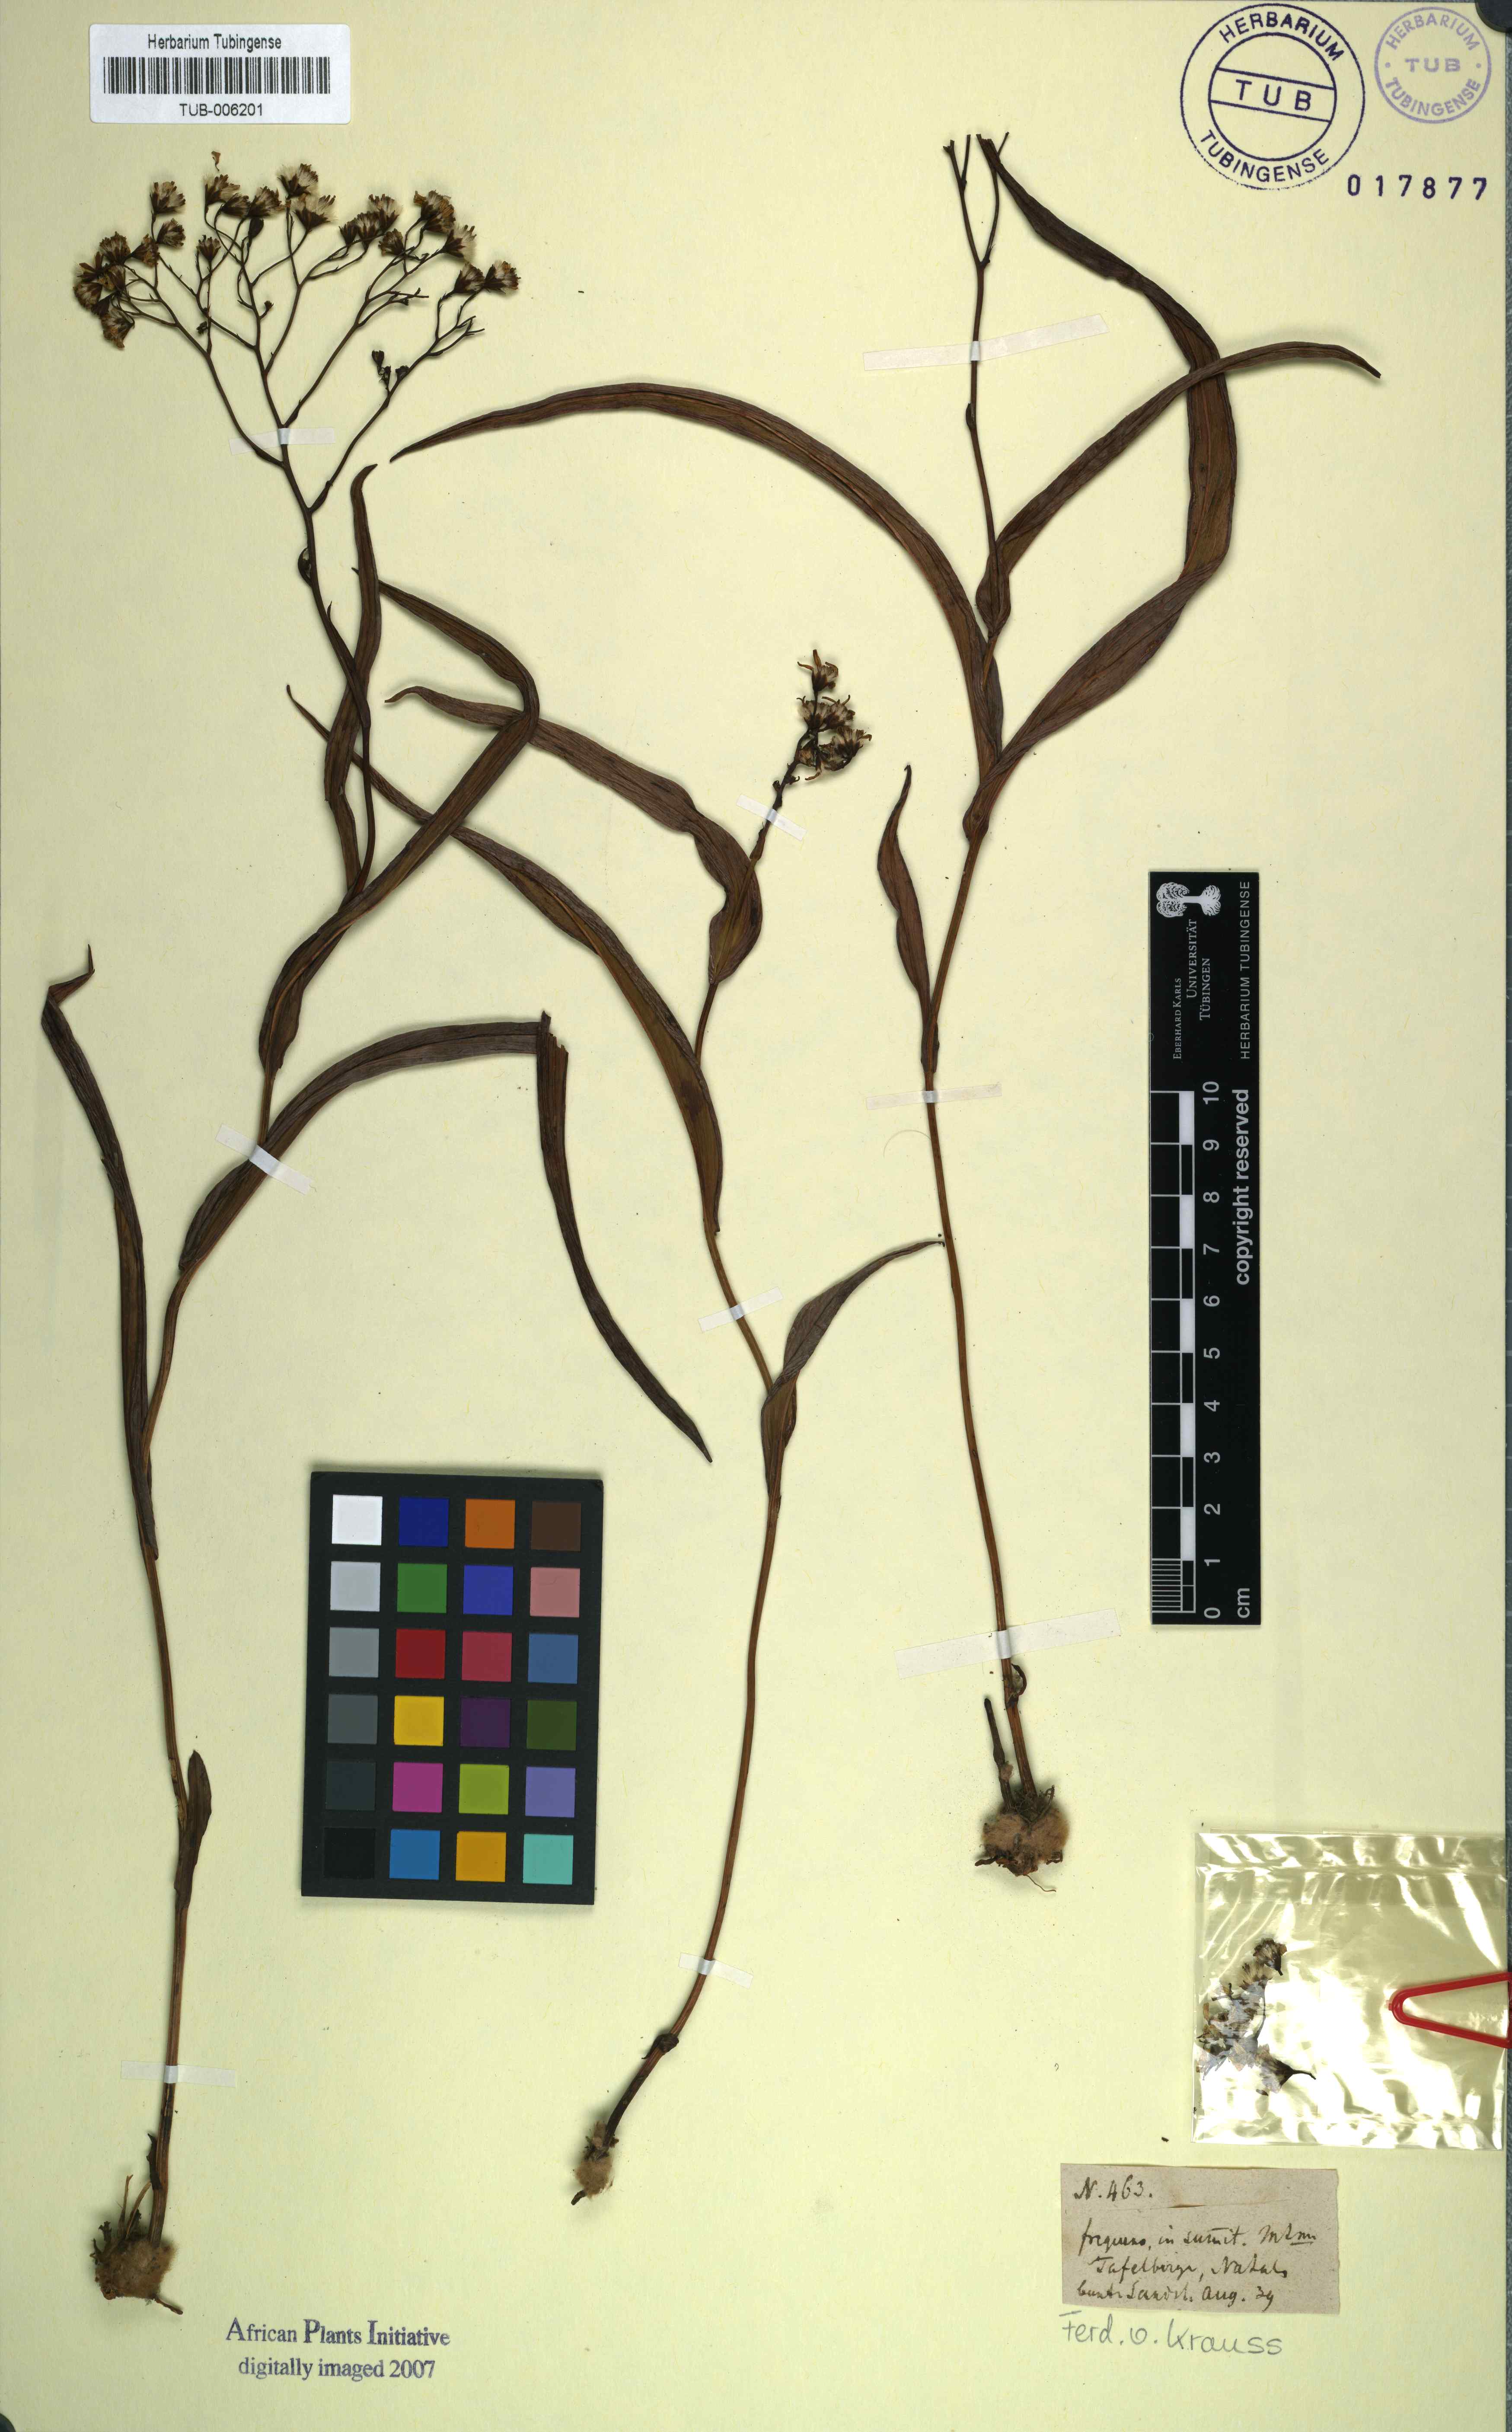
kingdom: Plantae
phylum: Tracheophyta
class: Magnoliopsida
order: Asterales
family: Asteraceae
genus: Senecio
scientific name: Senecio bupleuroides
